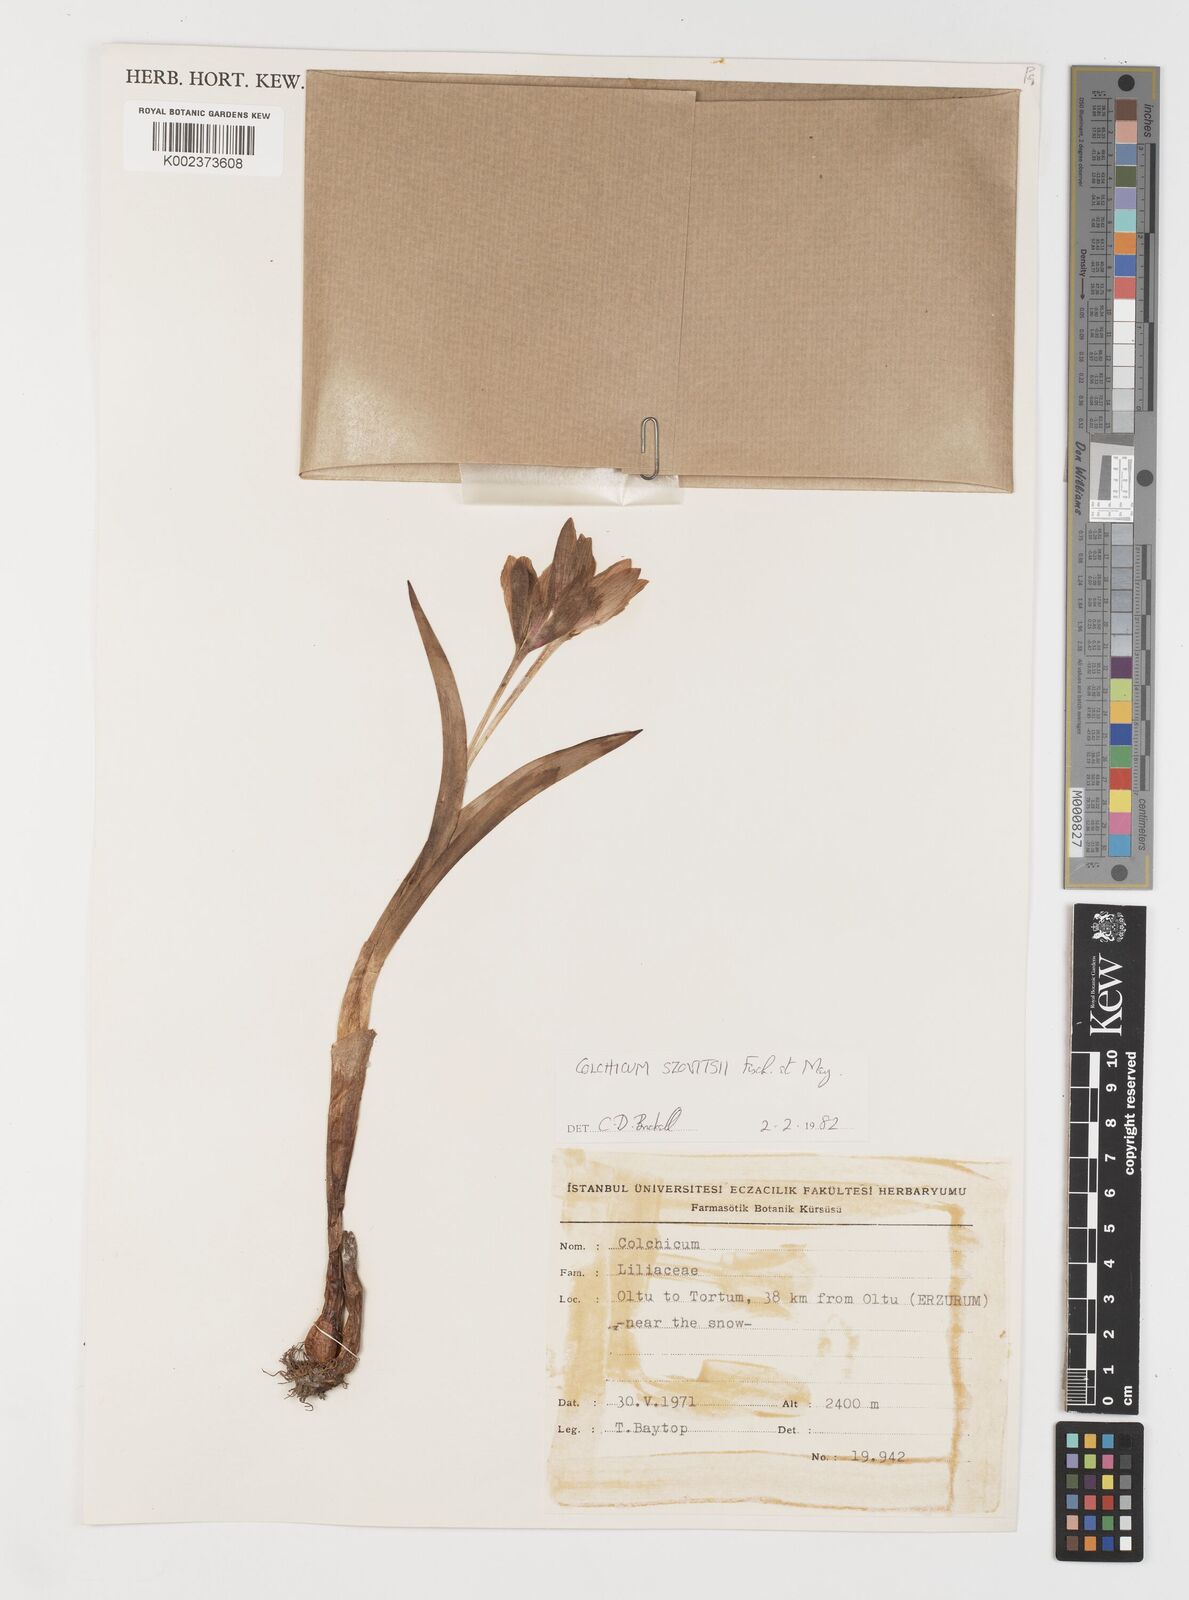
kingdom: Plantae
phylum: Tracheophyta
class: Liliopsida
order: Liliales
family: Colchicaceae
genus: Colchicum
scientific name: Colchicum szovitsii
